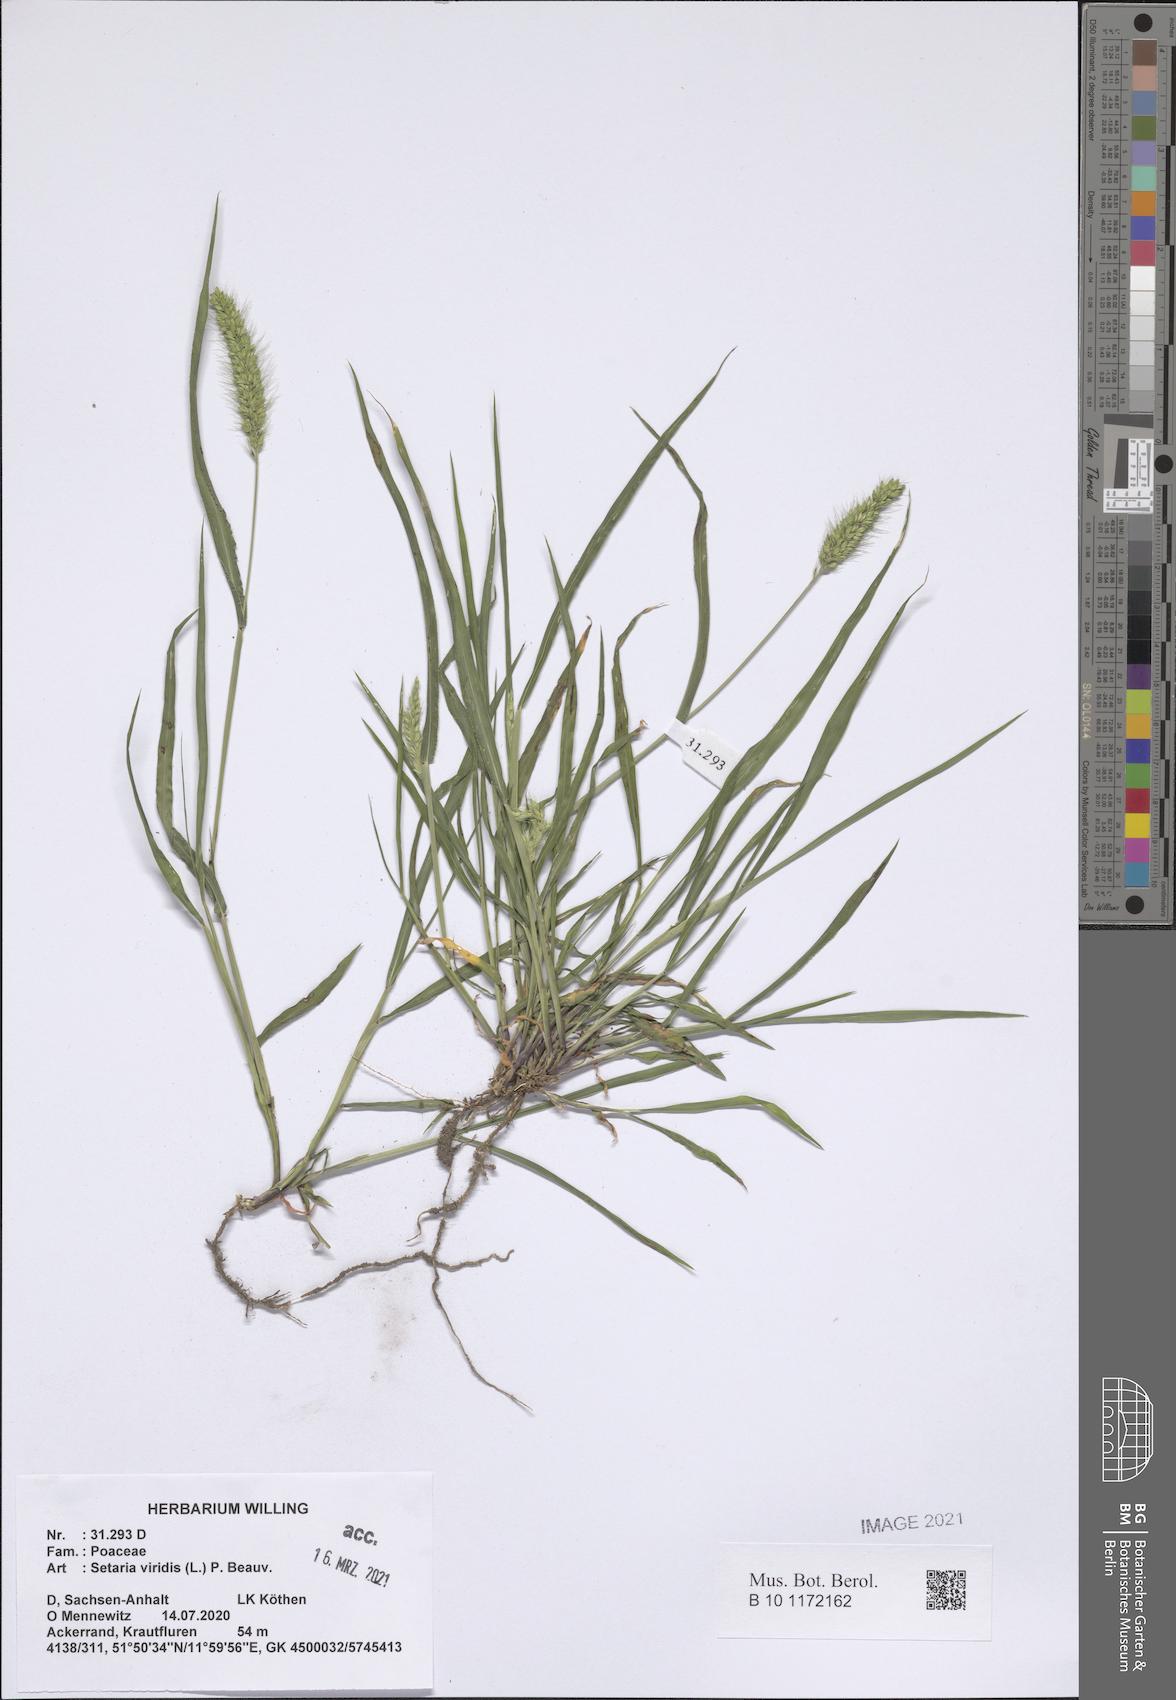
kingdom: Plantae
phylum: Tracheophyta
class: Liliopsida
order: Poales
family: Poaceae
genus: Setaria
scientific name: Setaria viridis
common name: Green bristlegrass
